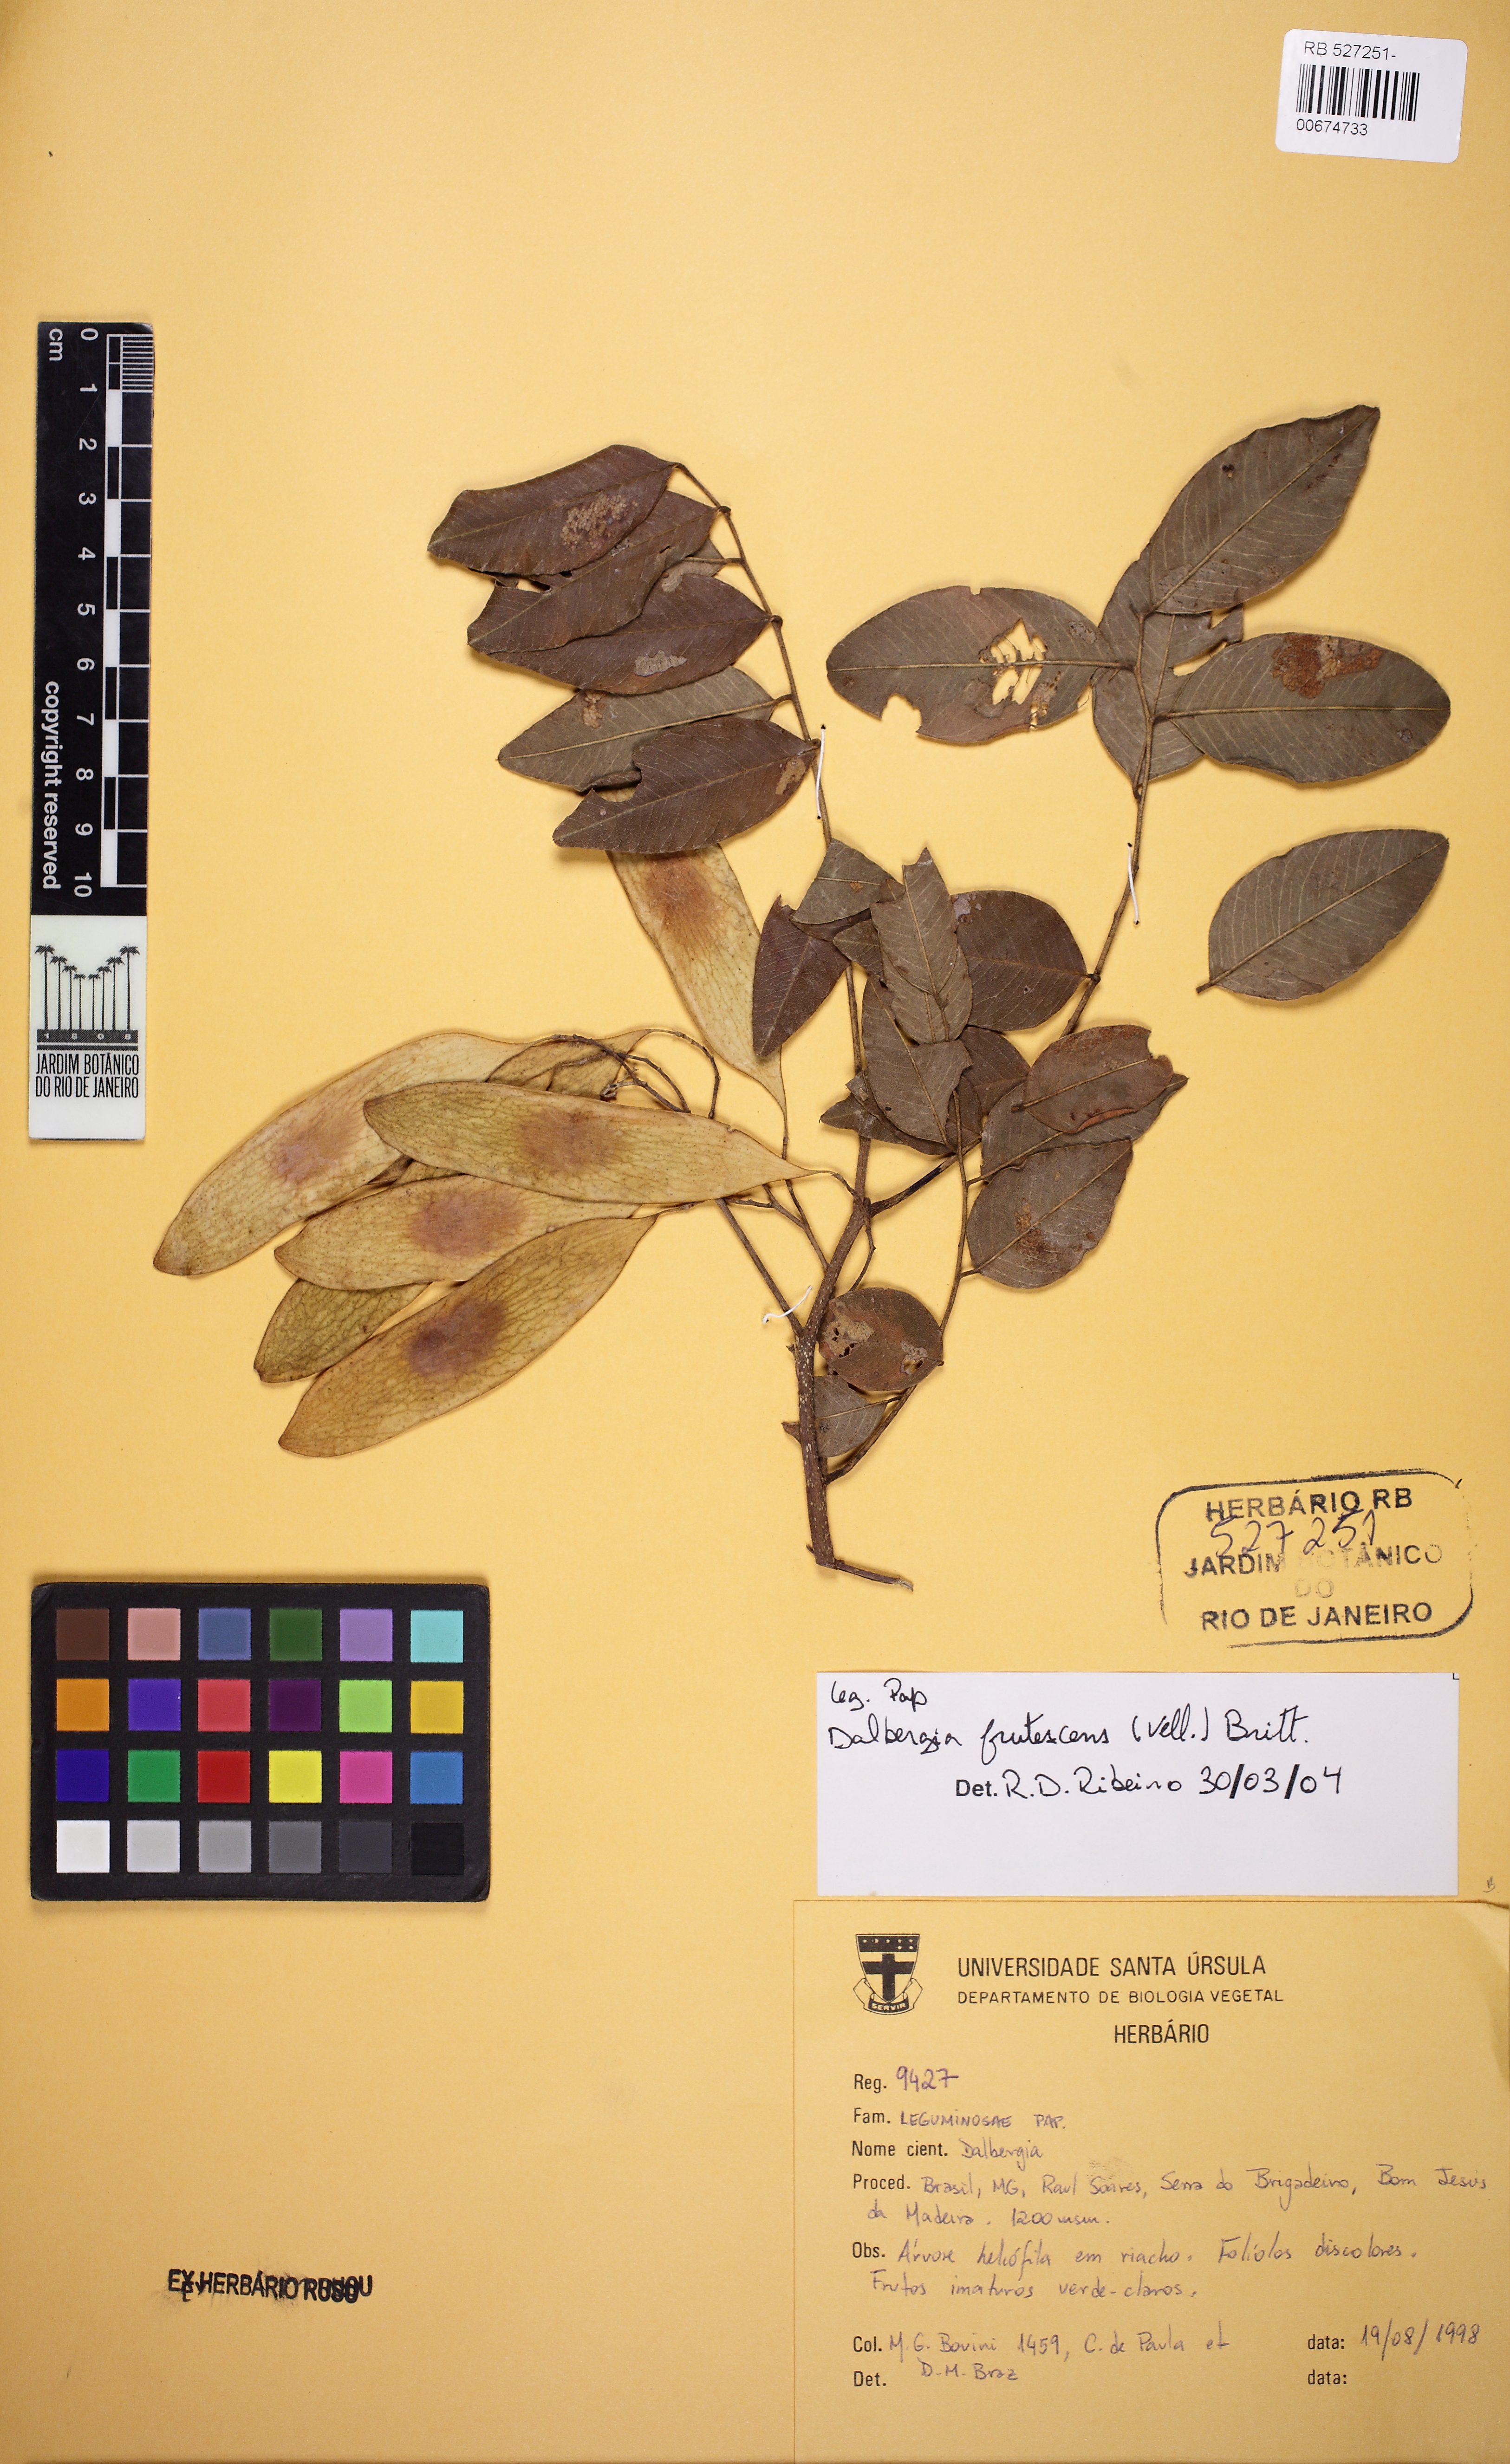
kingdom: Plantae
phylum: Tracheophyta
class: Magnoliopsida
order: Fabales
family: Fabaceae
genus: Dalbergia
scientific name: Dalbergia frutescens
